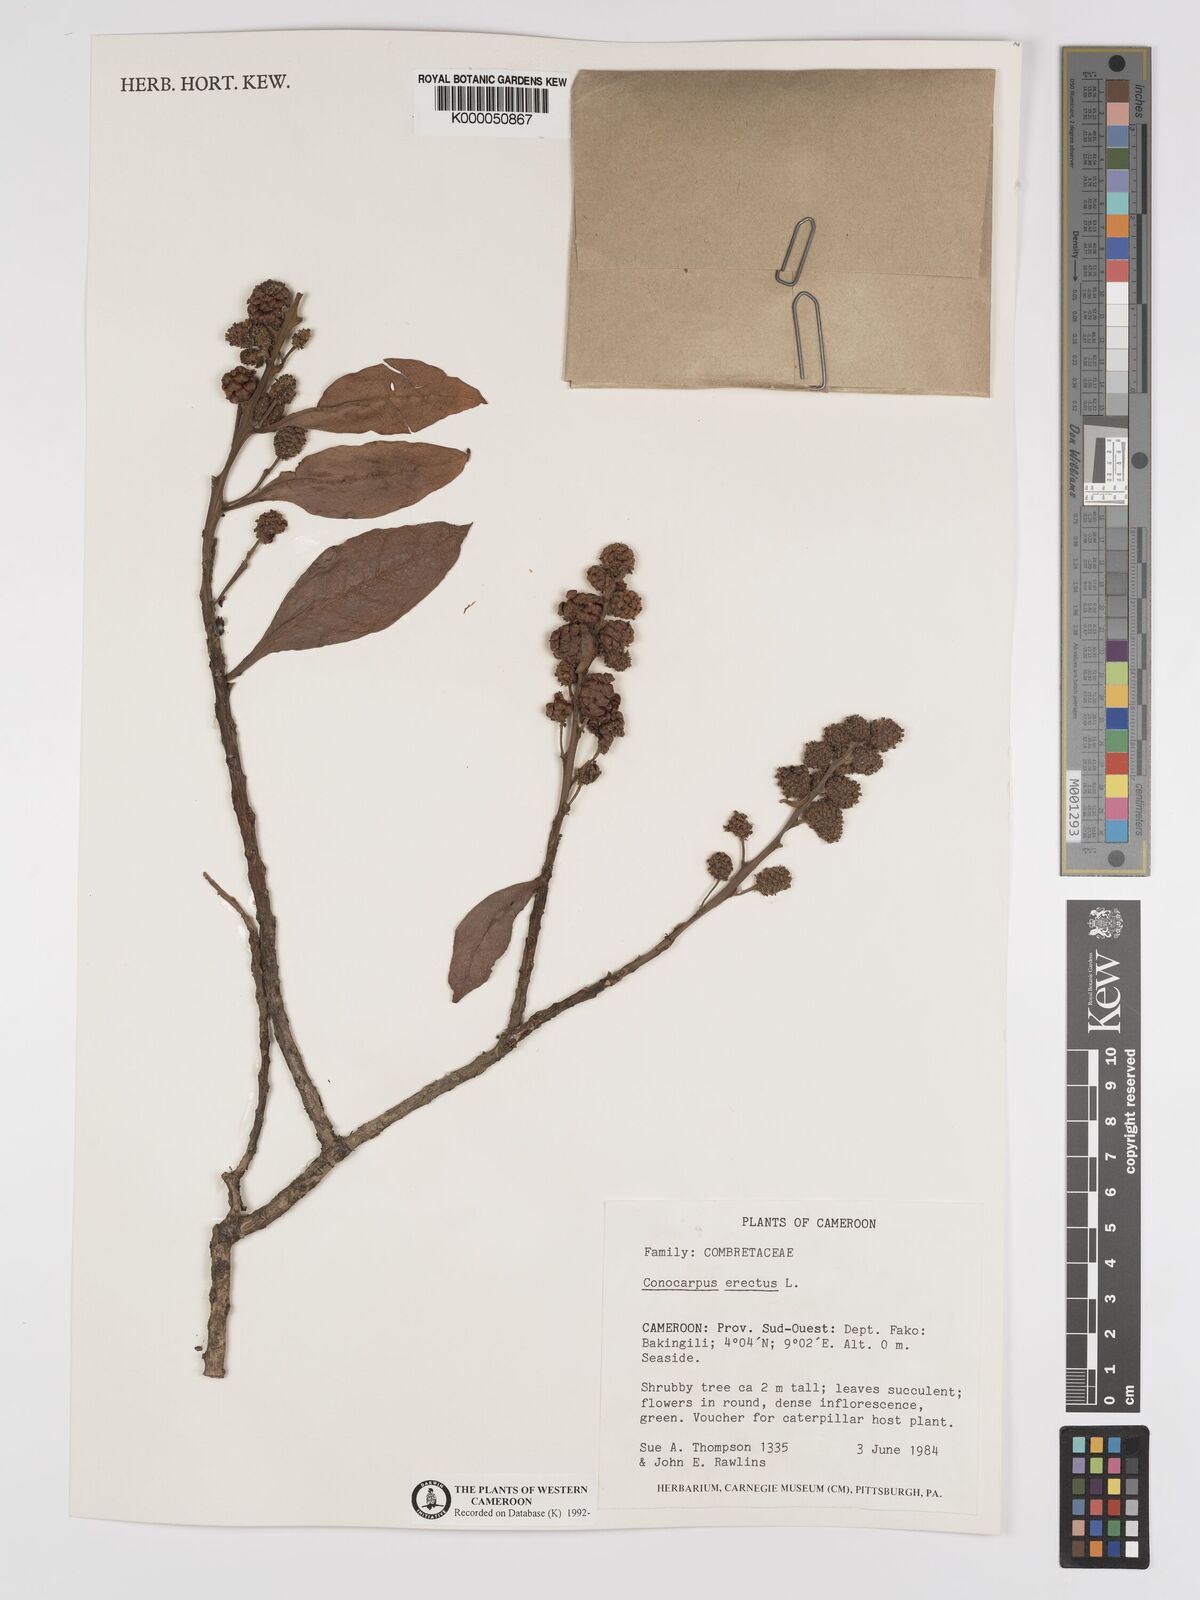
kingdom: Plantae
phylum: Tracheophyta
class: Magnoliopsida
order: Myrtales
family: Combretaceae
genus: Conocarpus
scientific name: Conocarpus erectus
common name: Button mangrove
